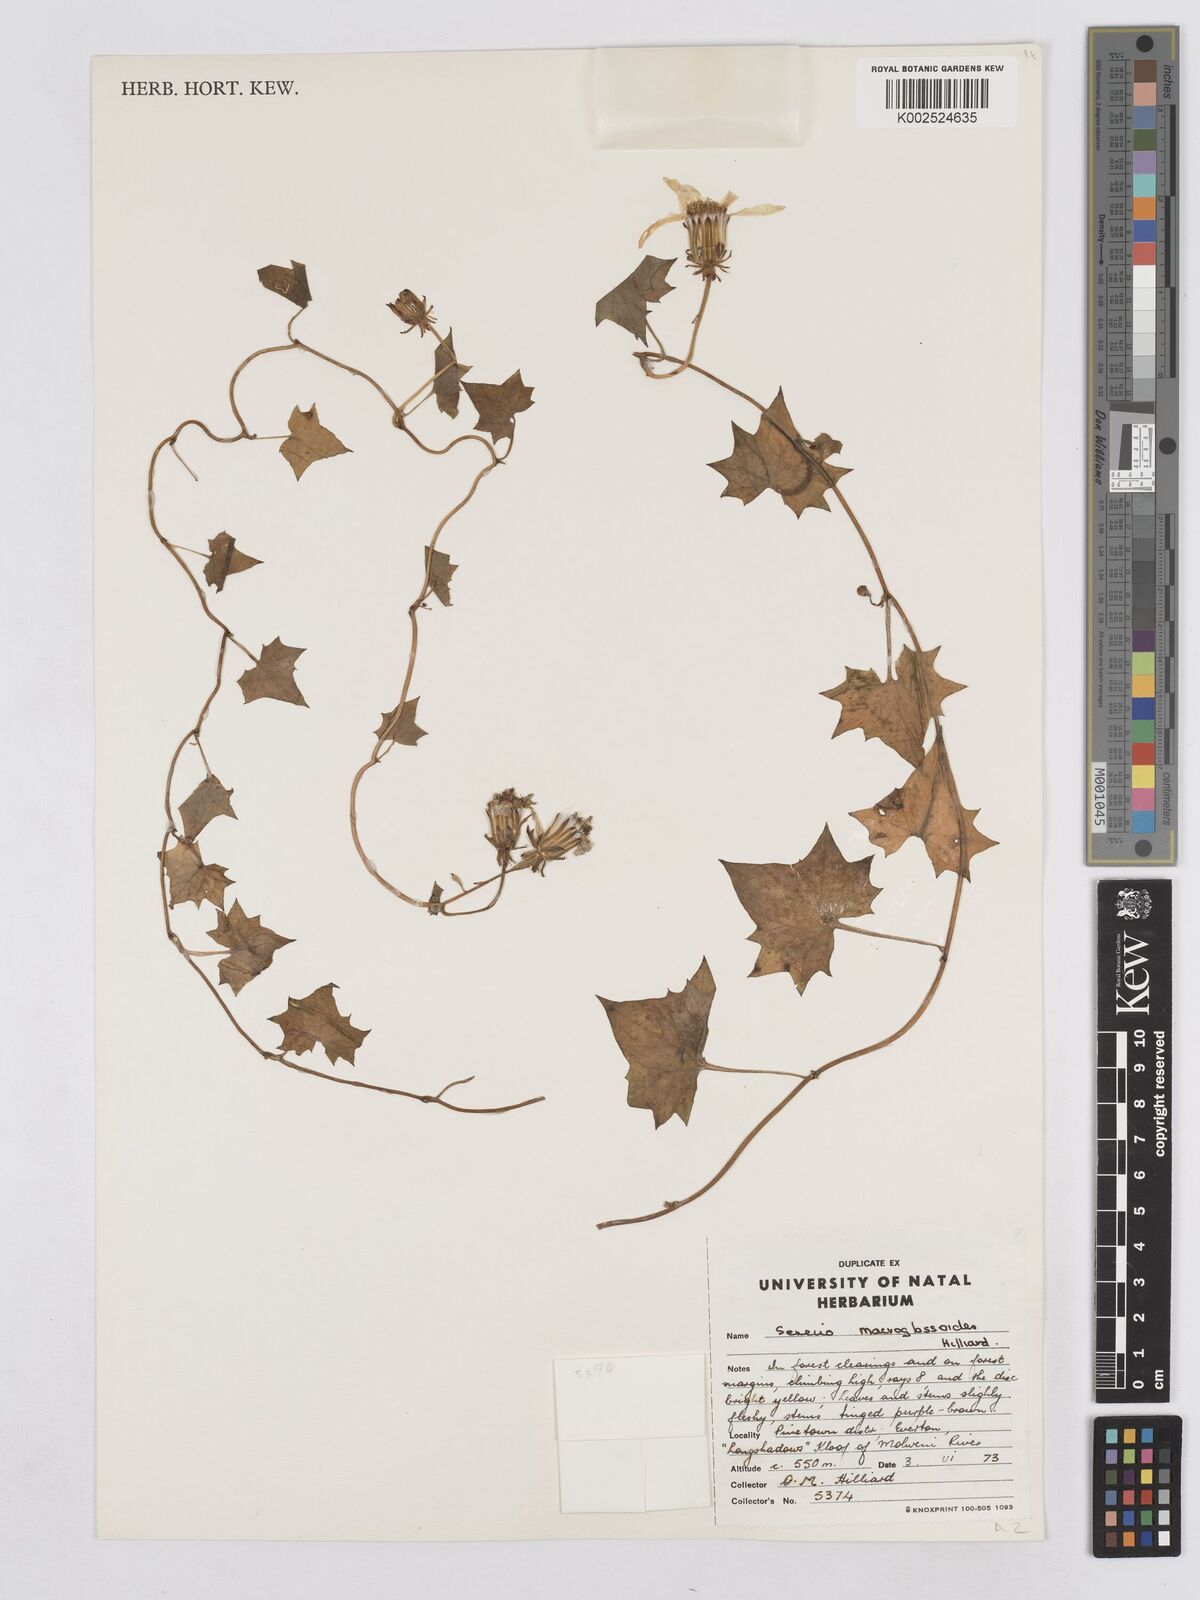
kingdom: Plantae
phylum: Tracheophyta
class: Magnoliopsida
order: Asterales
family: Asteraceae
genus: Senecio
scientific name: Senecio macroglossoides
